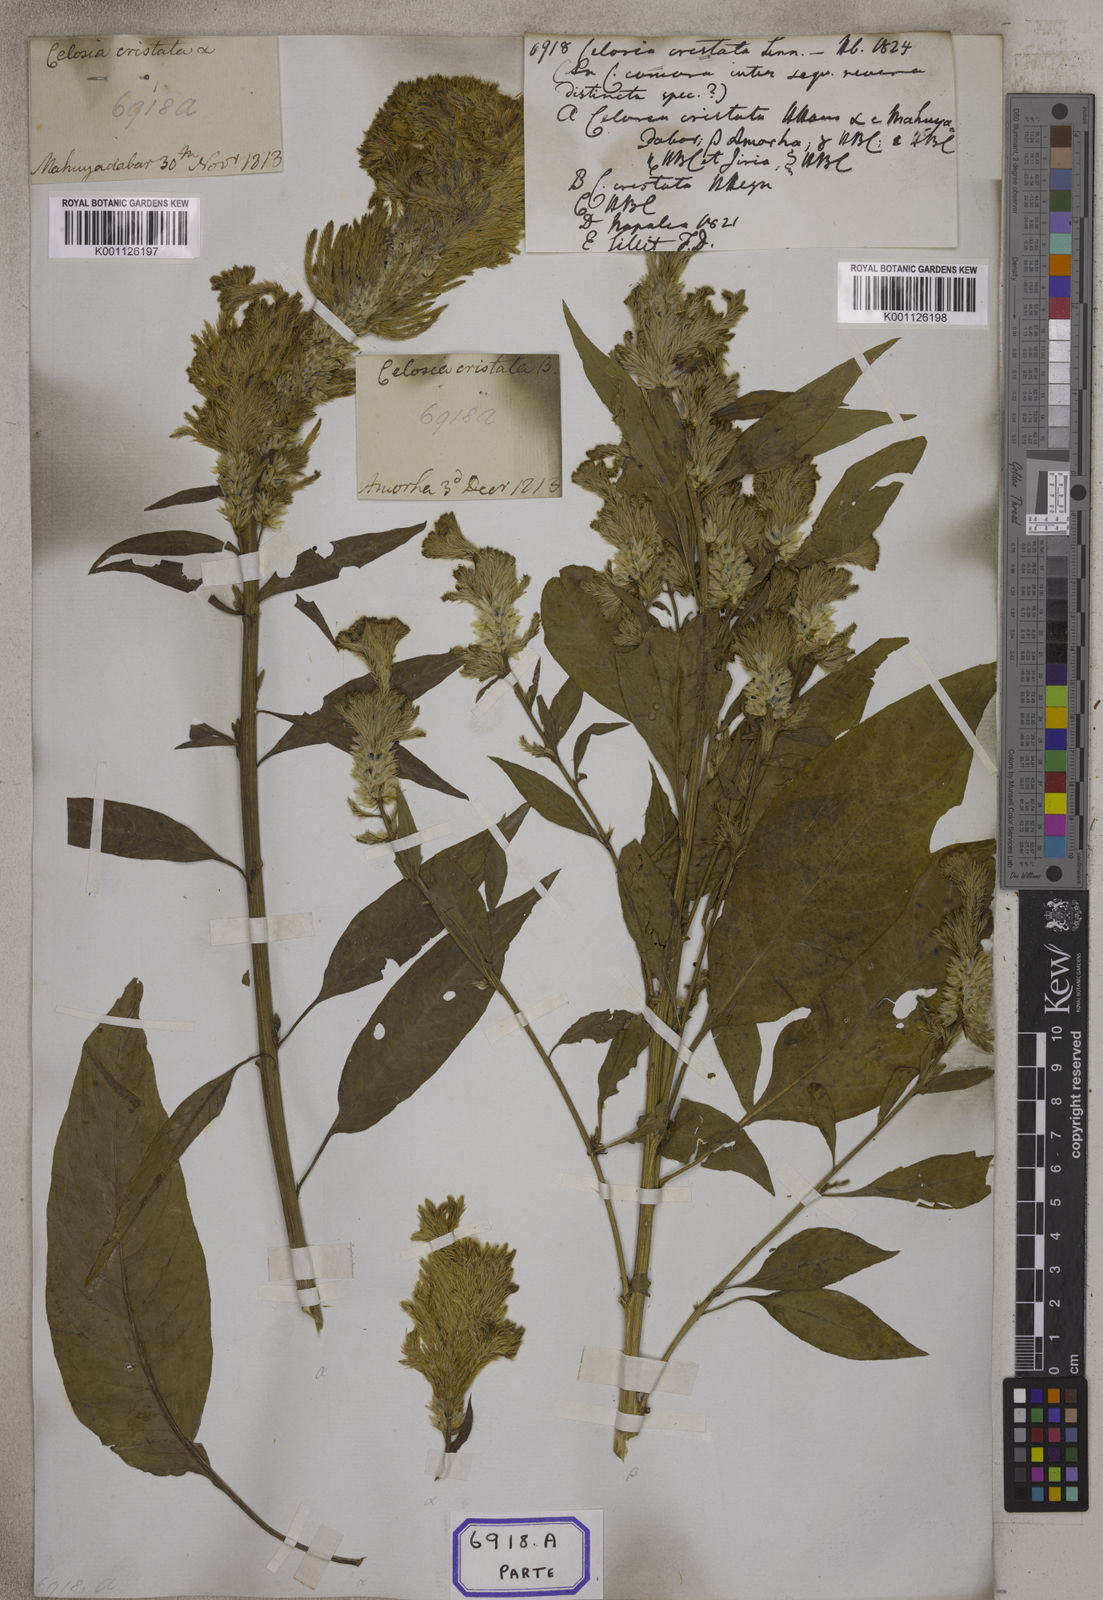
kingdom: Plantae
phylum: Tracheophyta
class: Magnoliopsida
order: Caryophyllales
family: Amaranthaceae
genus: Celosia
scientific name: Celosia argentea
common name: Feather cockscomb
